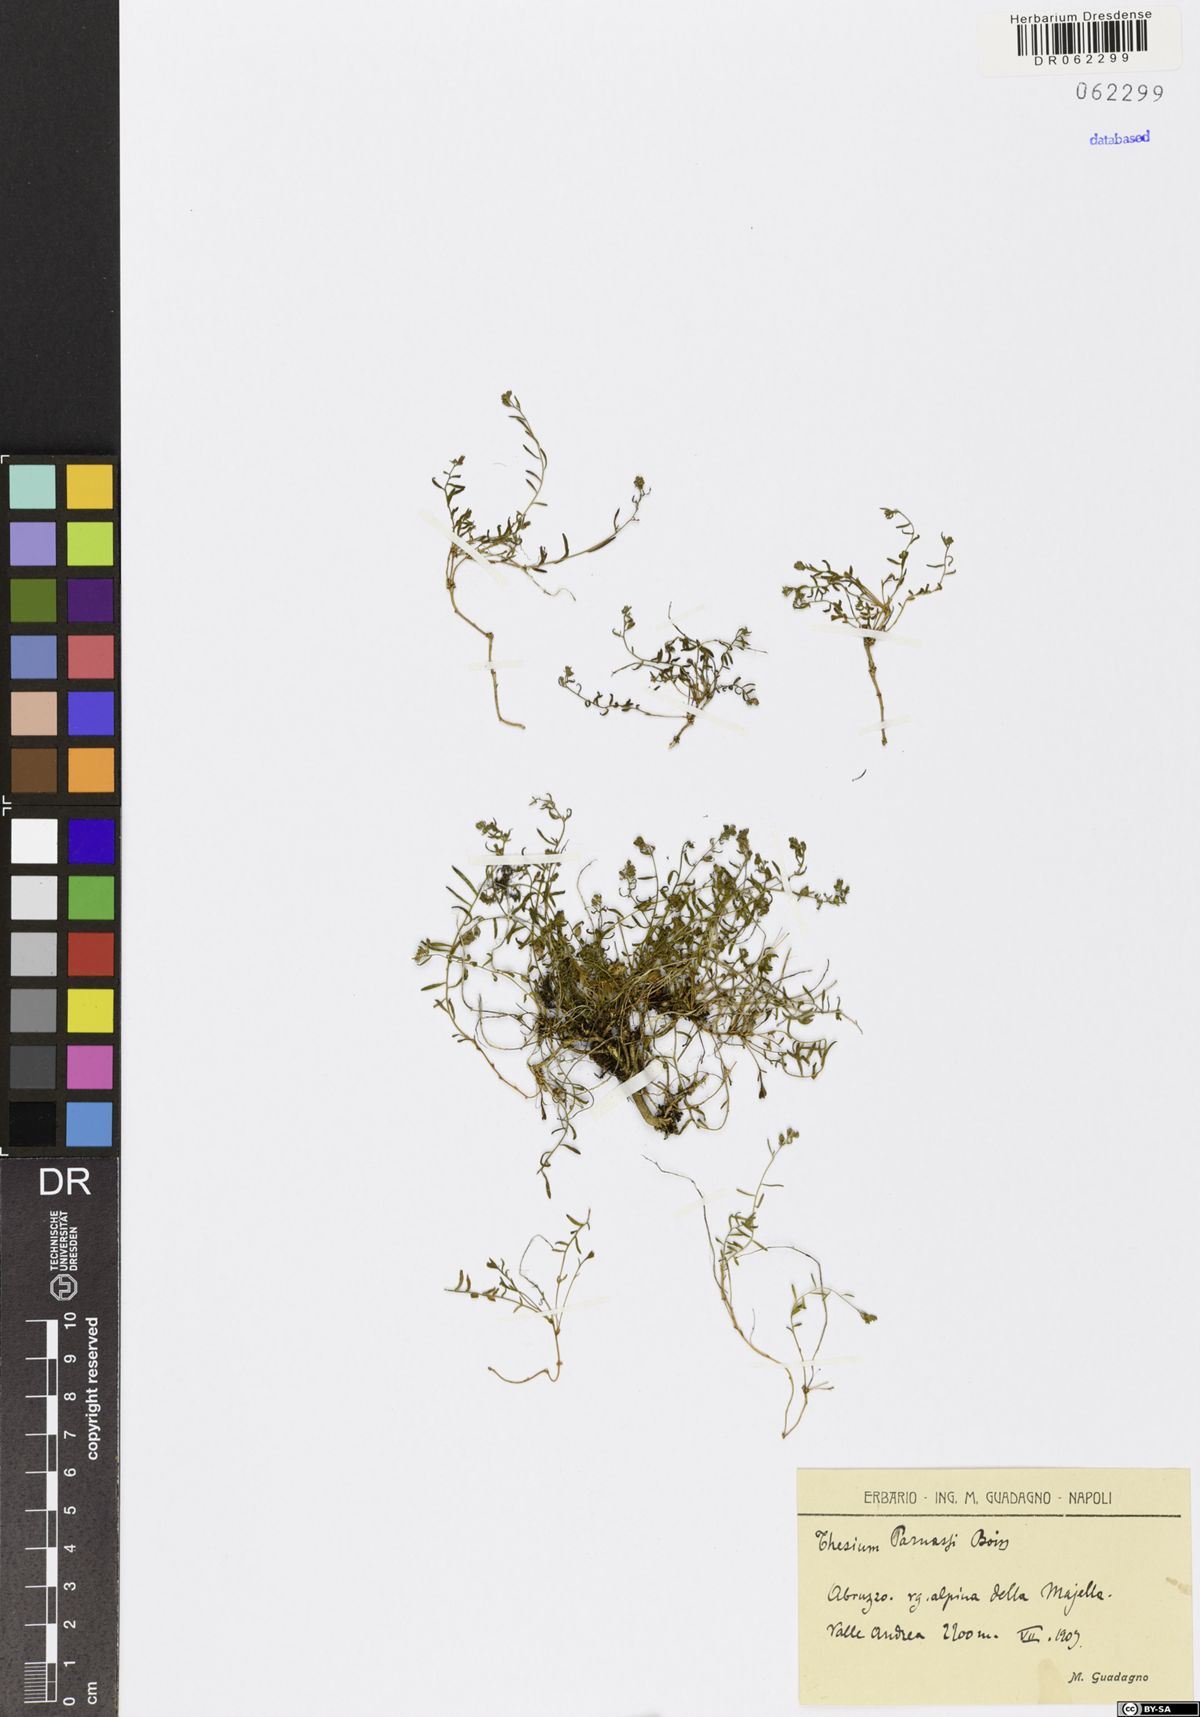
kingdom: Plantae
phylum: Tracheophyta
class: Magnoliopsida
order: Santalales
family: Thesiaceae
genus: Thesium
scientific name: Thesium parnassi
